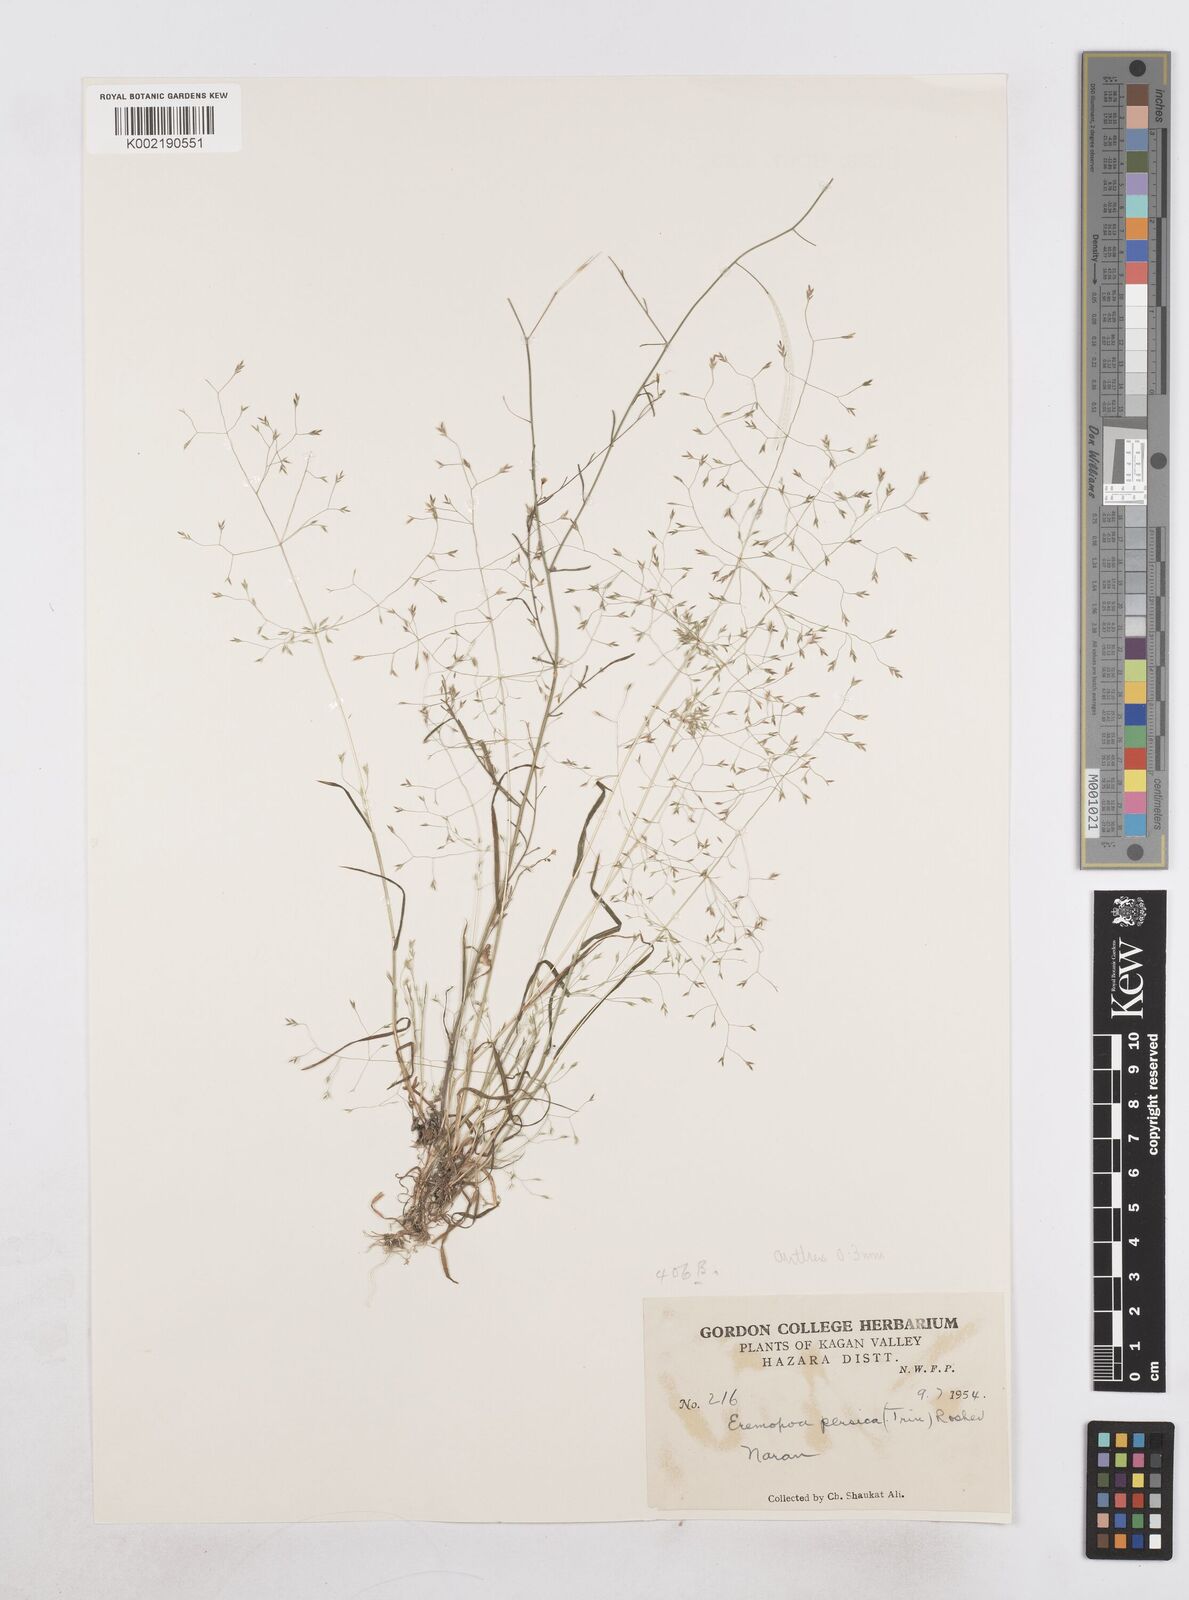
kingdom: Plantae
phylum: Tracheophyta
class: Liliopsida
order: Poales
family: Poaceae
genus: Poa
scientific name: Poa diaphora
